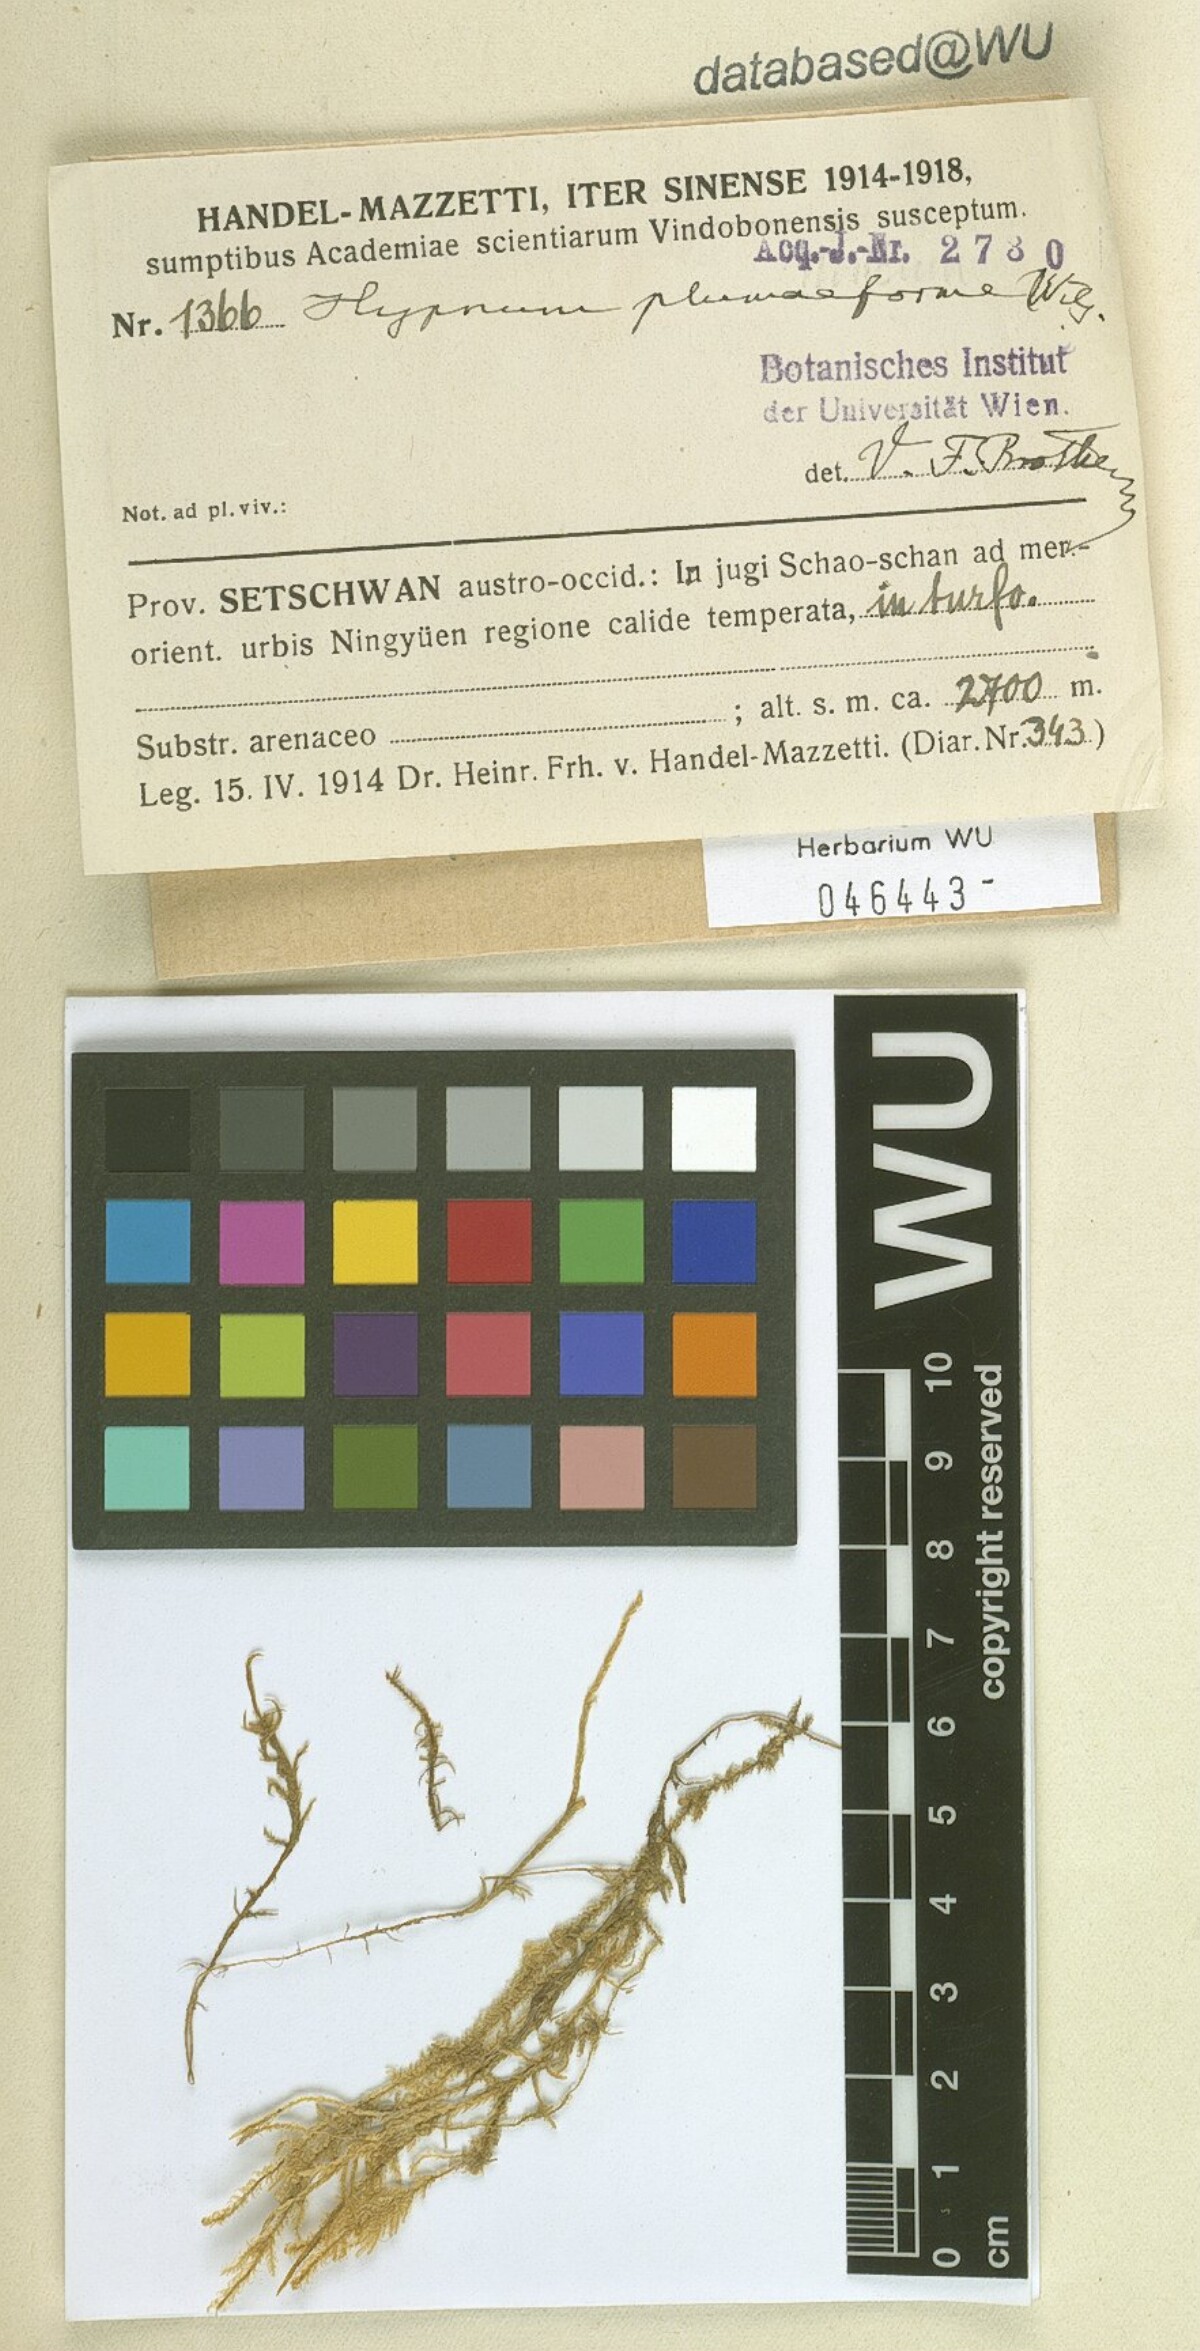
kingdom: Plantae
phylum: Bryophyta
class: Bryopsida
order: Hypnales
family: Hypnaceae
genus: Hypnum
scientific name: Hypnum plumaeforme
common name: Cypress-leaved plaitmoss
